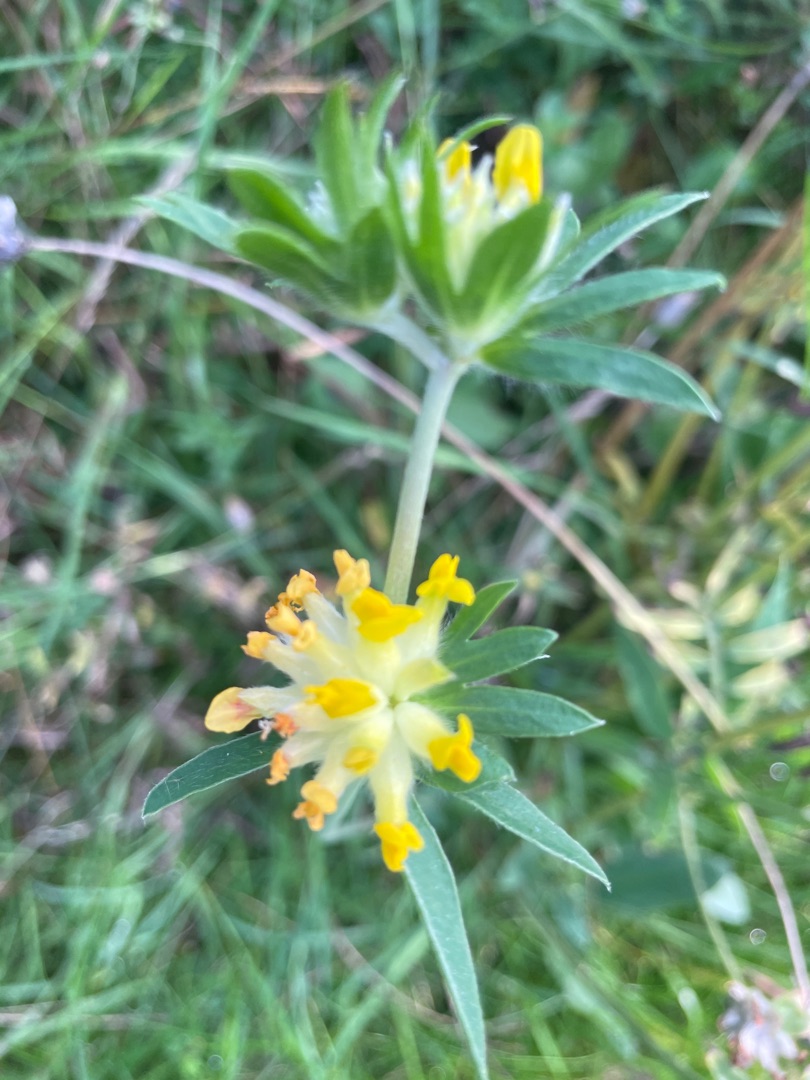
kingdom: Plantae
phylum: Tracheophyta
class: Magnoliopsida
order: Fabales
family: Fabaceae
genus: Anthyllis
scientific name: Anthyllis vulneraria
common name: Rundbælg
